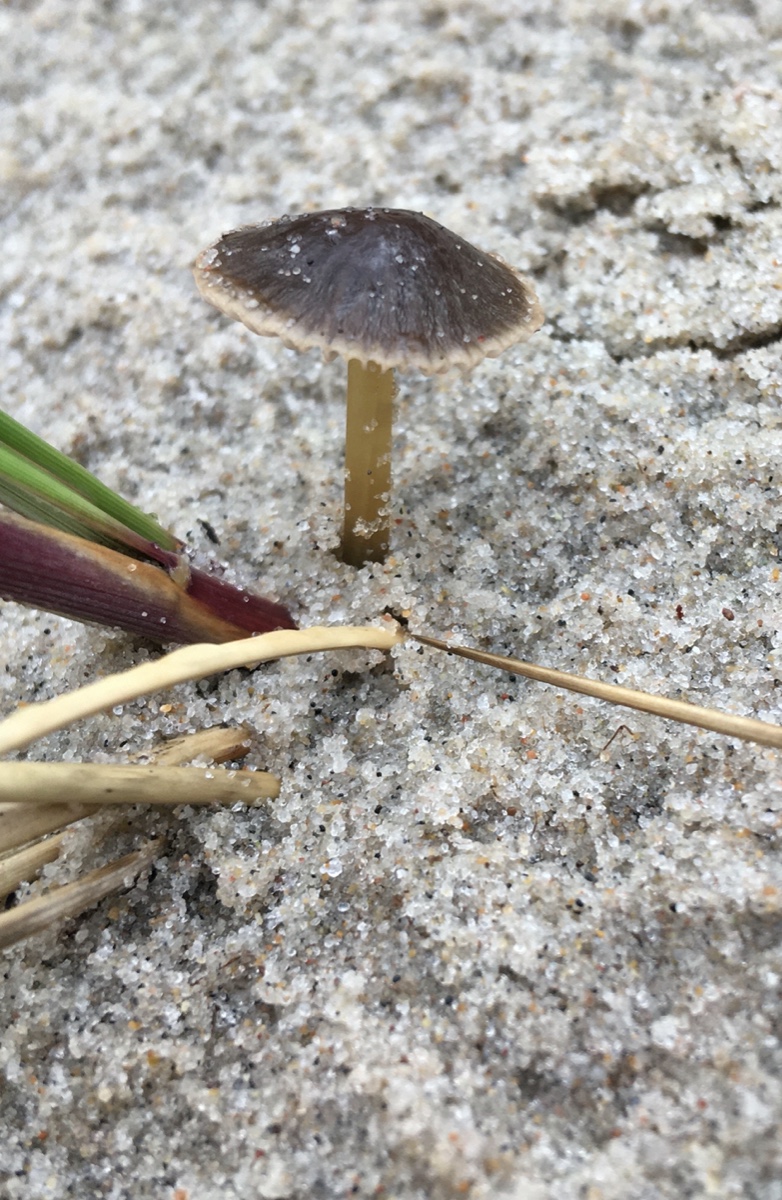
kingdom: Fungi
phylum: Basidiomycota
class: Agaricomycetes
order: Agaricales
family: Mycenaceae
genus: Mycena
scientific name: Mycena olivaceomarginata
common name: brunægget huesvamp
